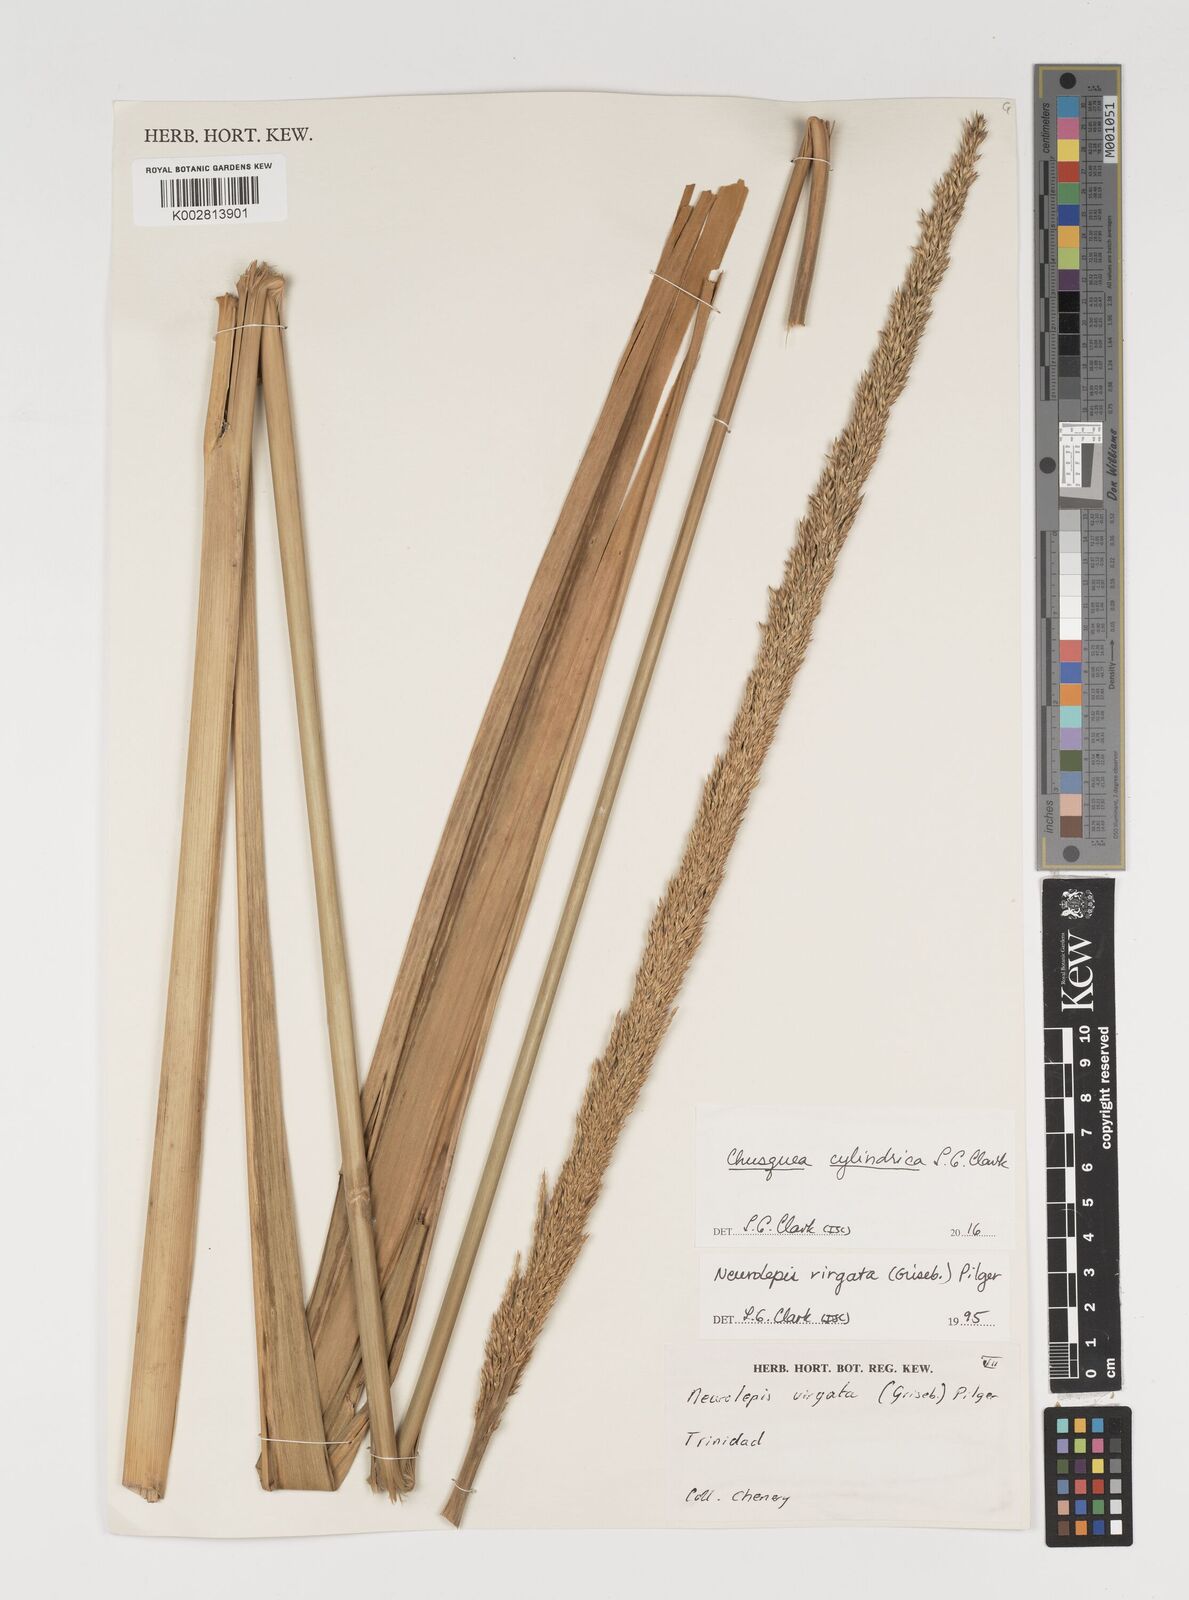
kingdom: Plantae
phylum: Tracheophyta
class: Liliopsida
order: Poales
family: Poaceae
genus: Chusquea
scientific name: Chusquea cylindrica
